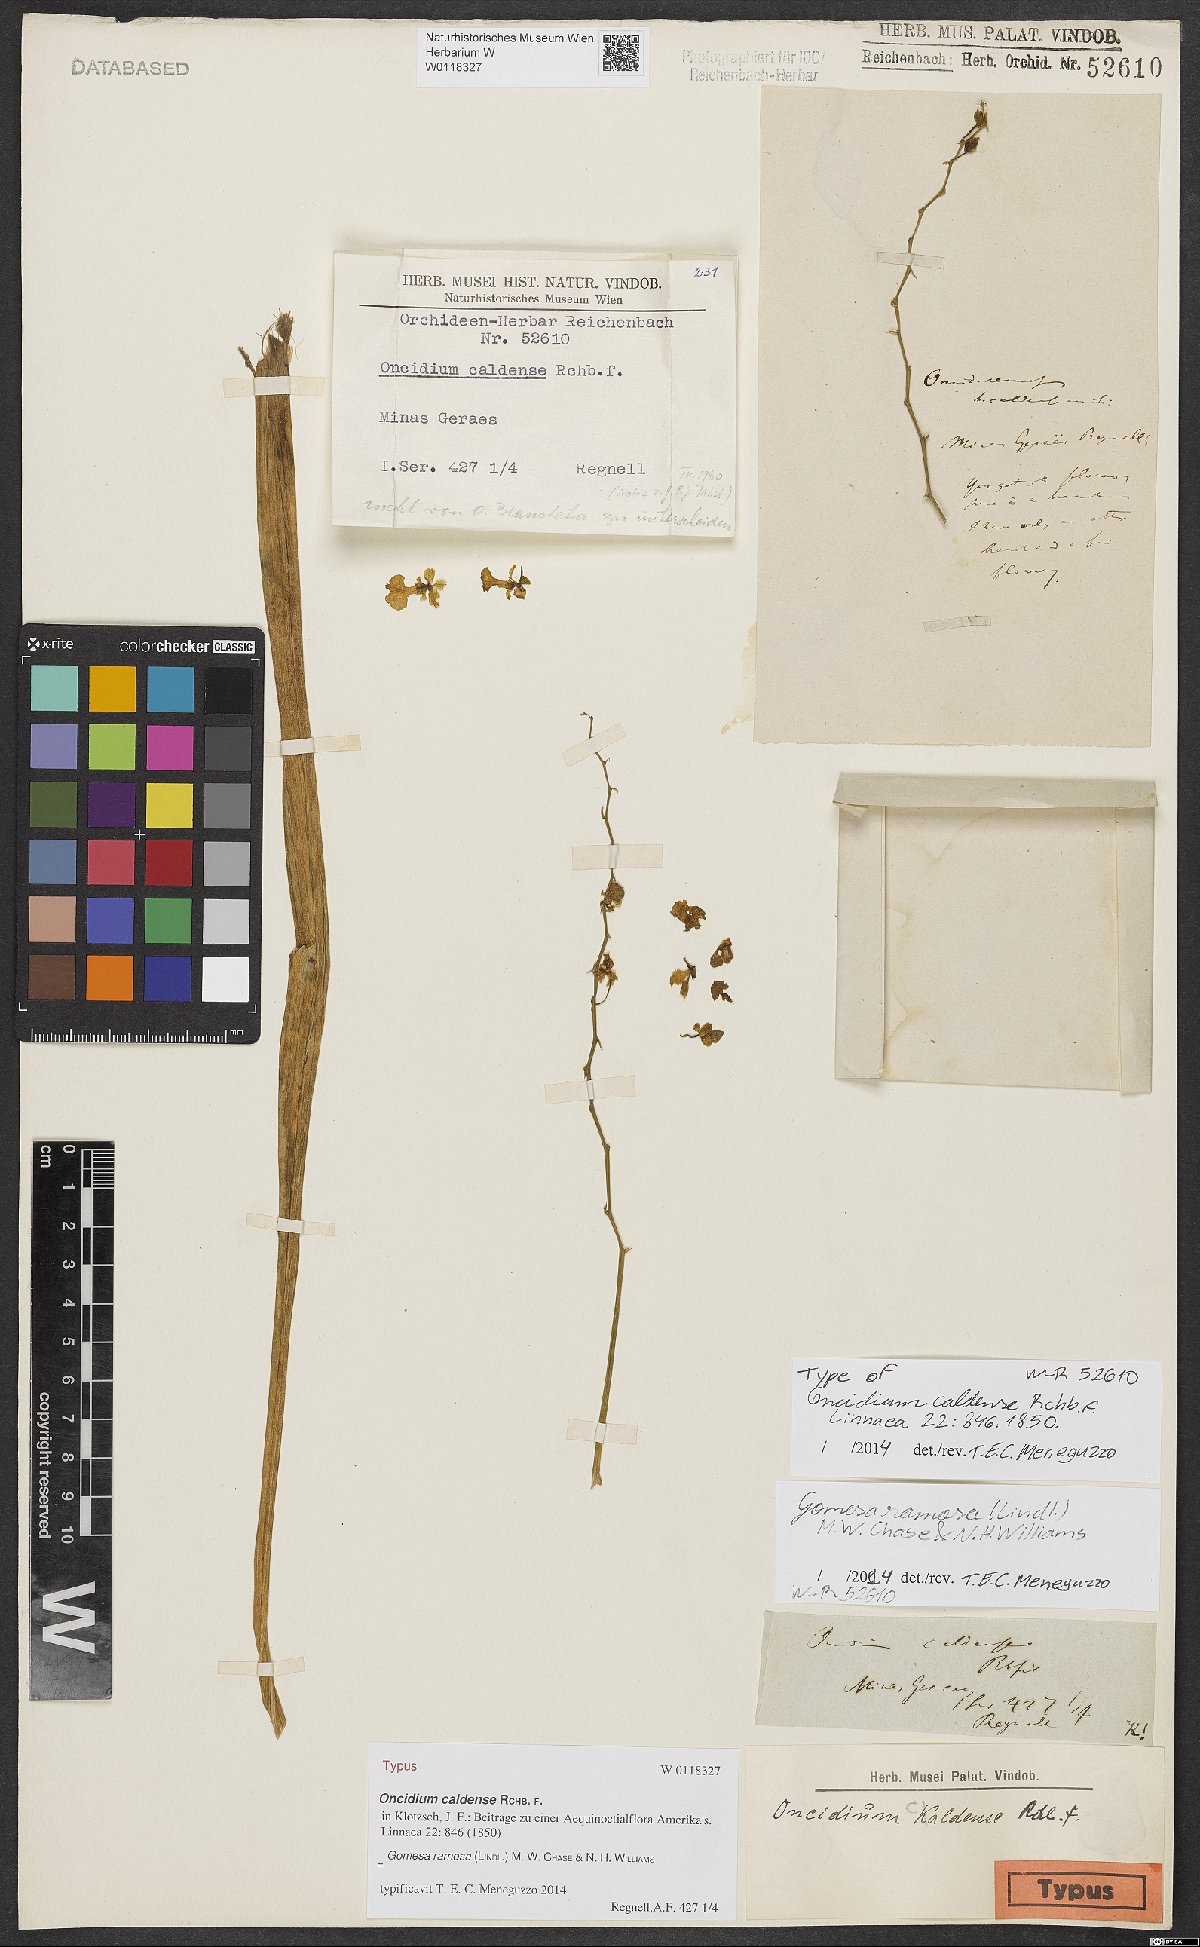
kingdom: Plantae
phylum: Tracheophyta
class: Liliopsida
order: Asparagales
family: Orchidaceae
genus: Gomesa
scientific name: Gomesa caldensis
